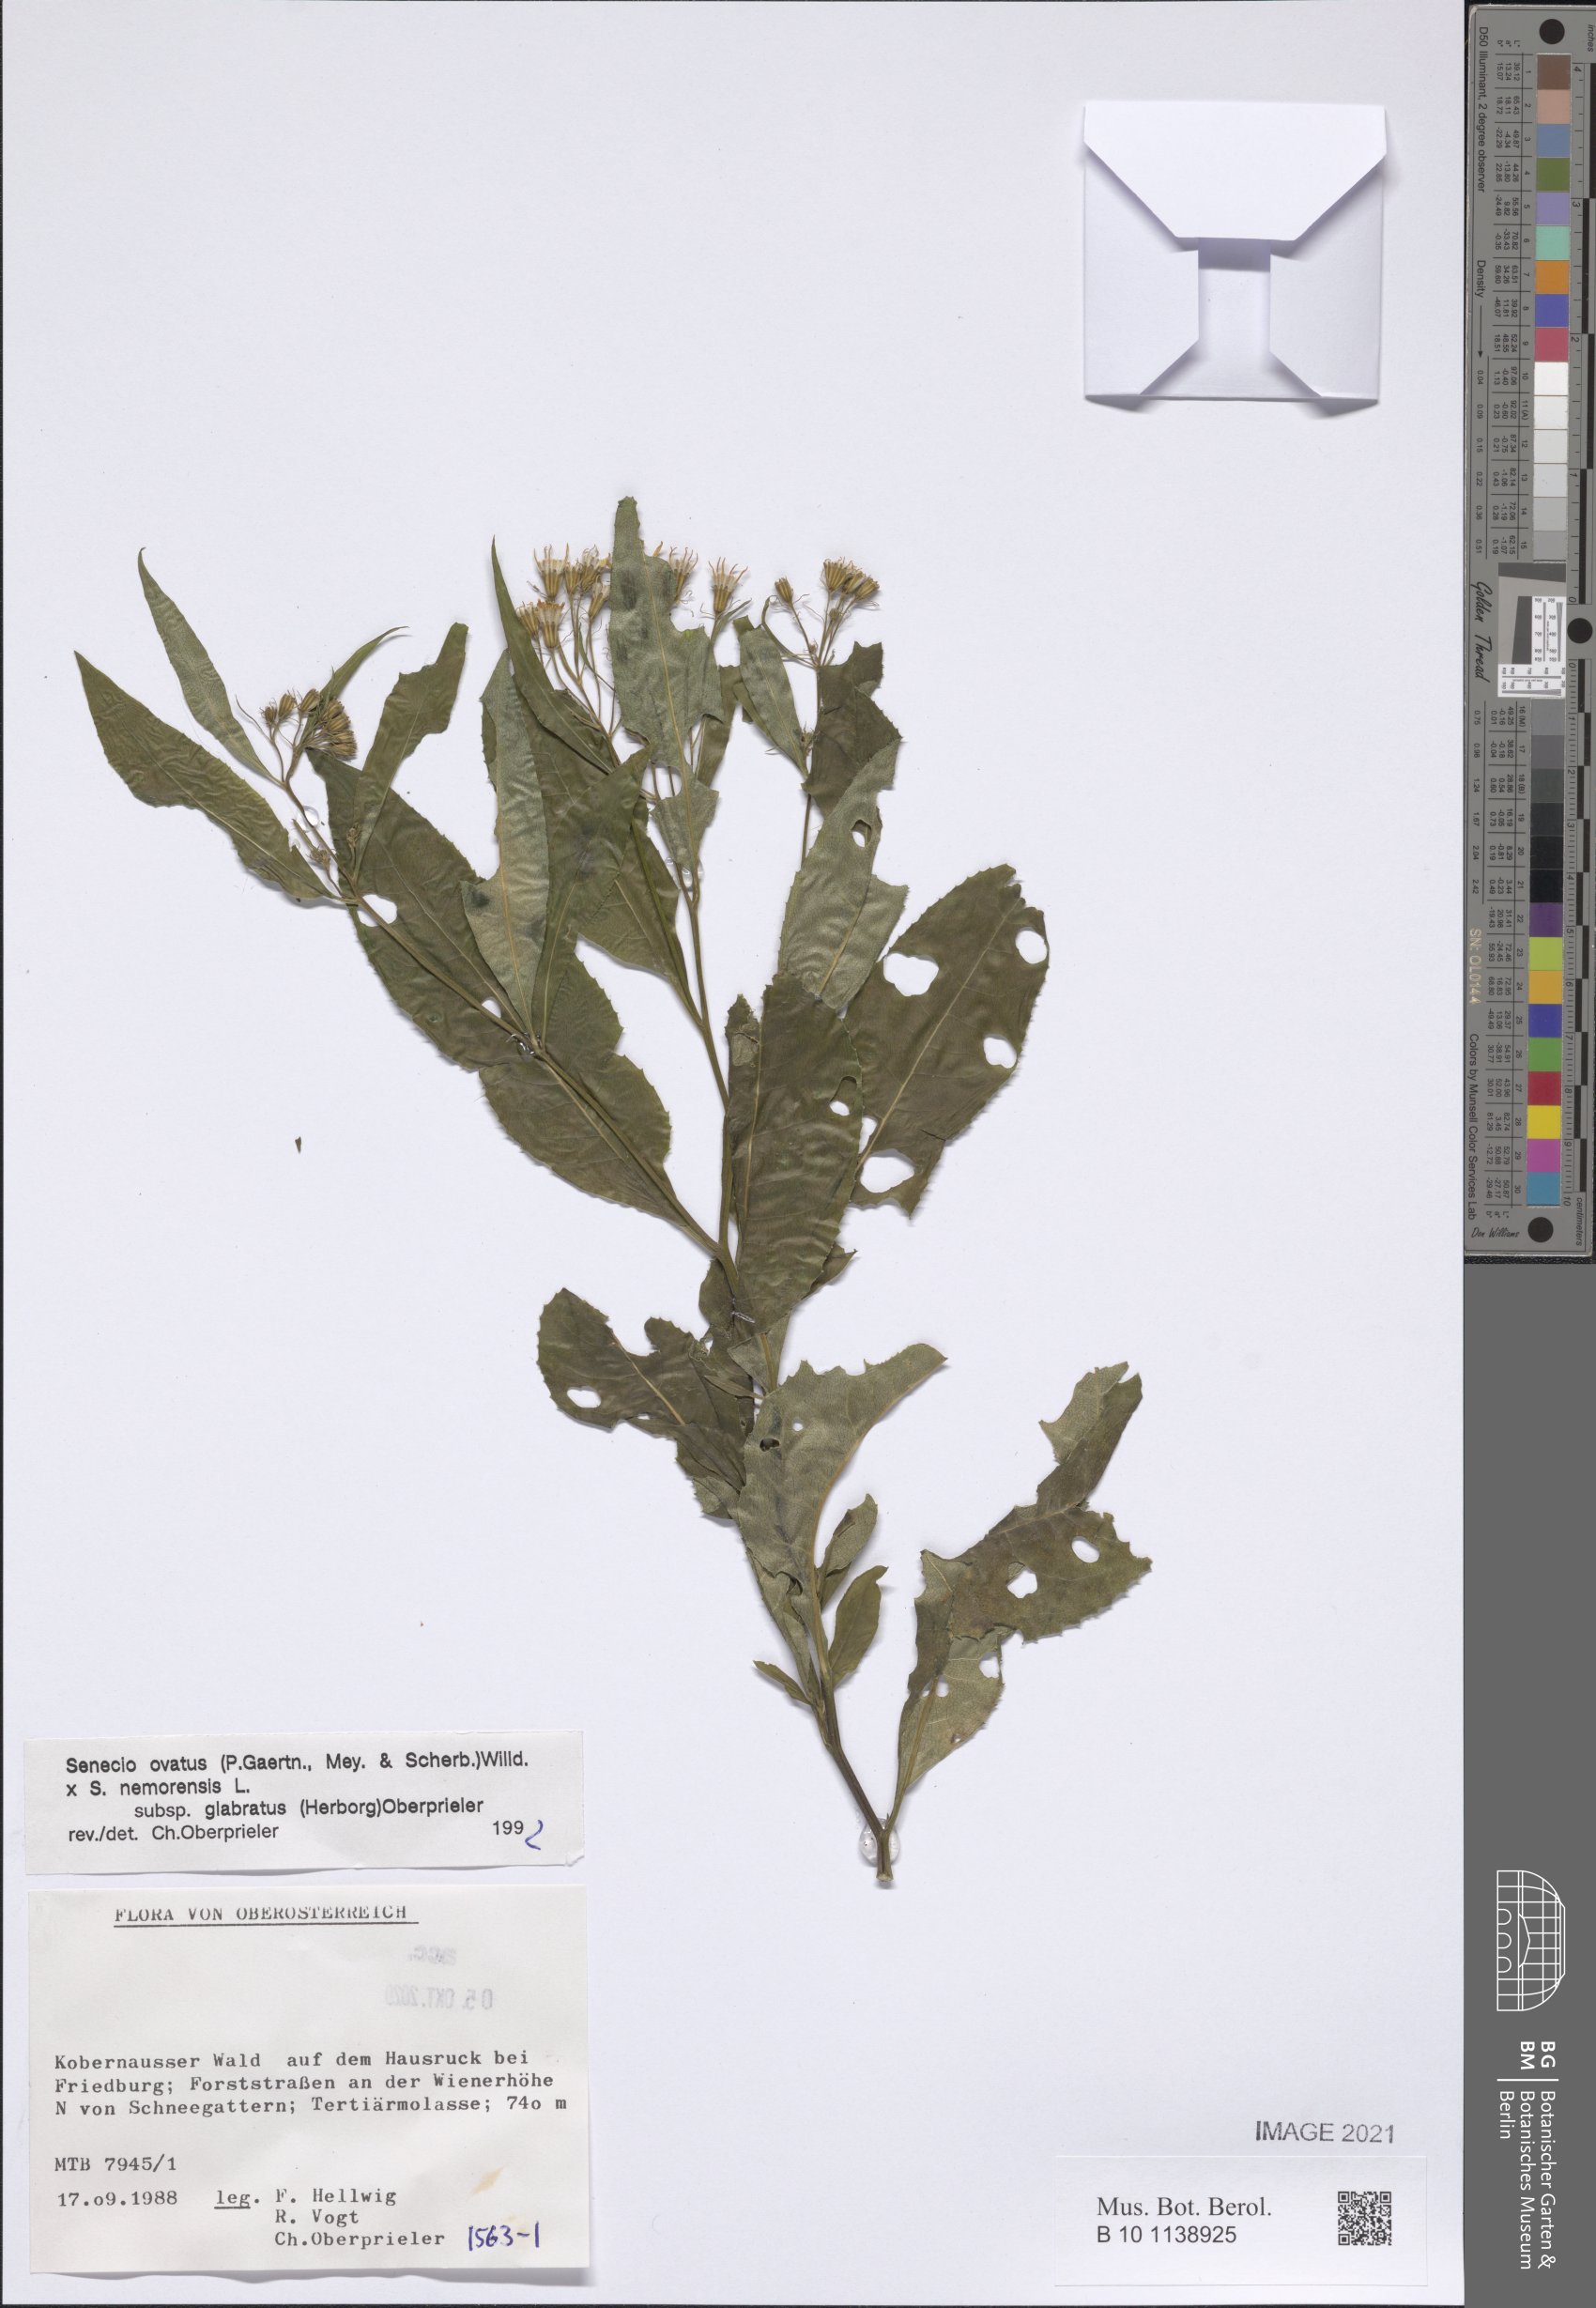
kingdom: Plantae
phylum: Tracheophyta
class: Magnoliopsida
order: Asterales
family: Asteraceae
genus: Senecio
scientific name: Senecio ovatus
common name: Wood ragwort
